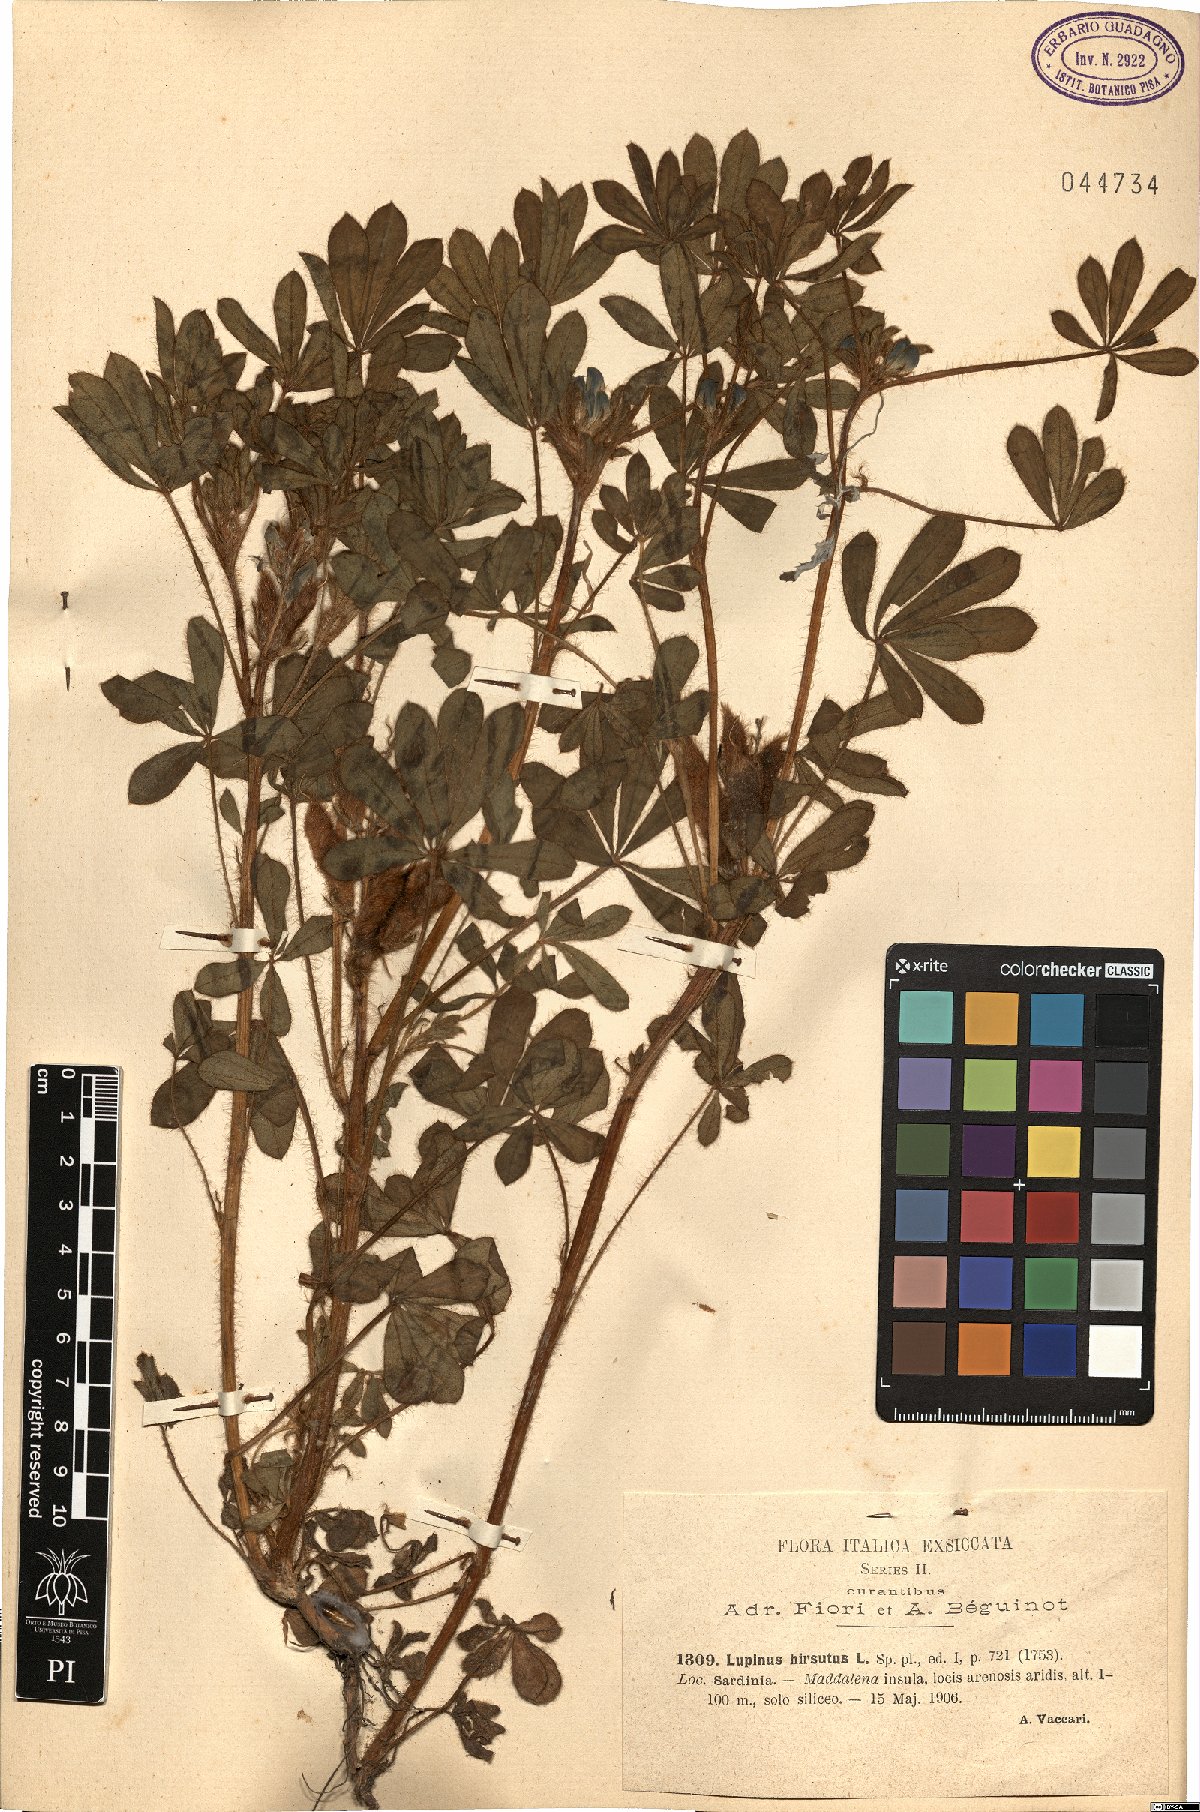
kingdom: Plantae
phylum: Tracheophyta
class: Magnoliopsida
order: Fabales
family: Fabaceae
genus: Lupinus
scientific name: Lupinus pilosus
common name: Blue lupine
